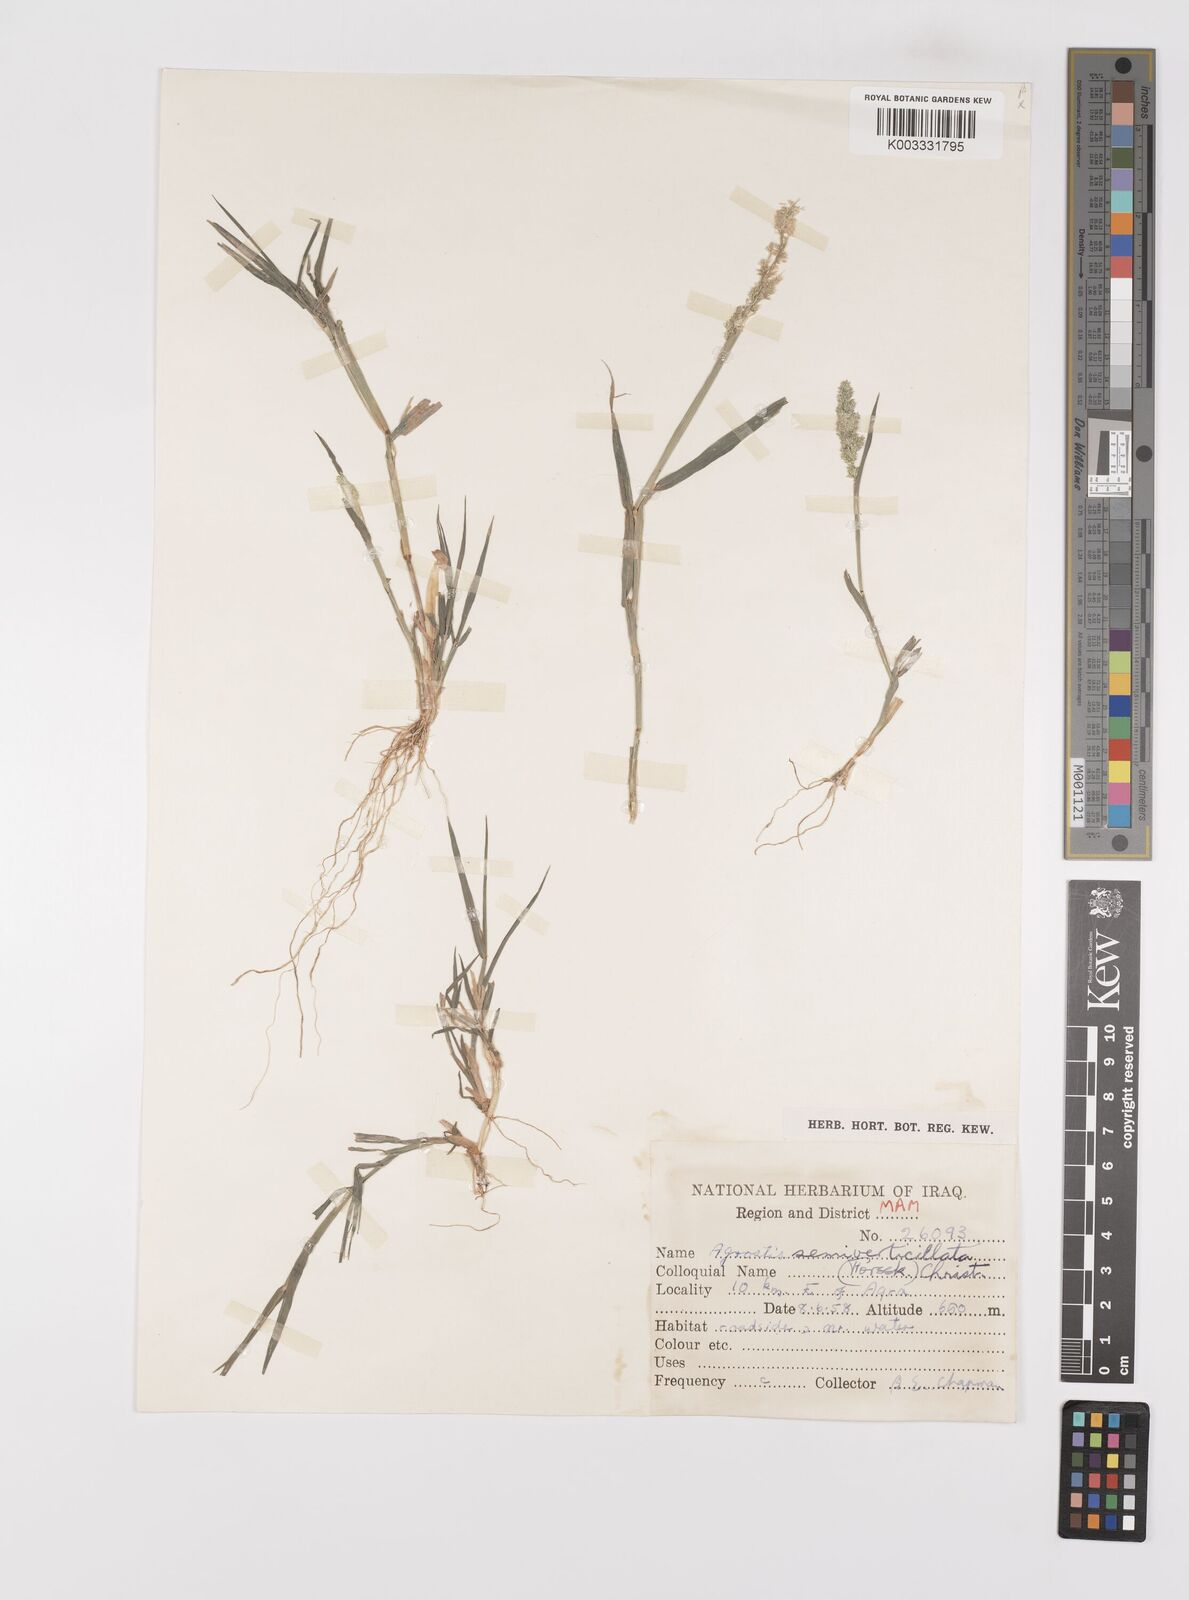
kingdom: Plantae
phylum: Tracheophyta
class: Liliopsida
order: Poales
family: Poaceae
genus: Polypogon
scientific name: Polypogon viridis
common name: Water bent
